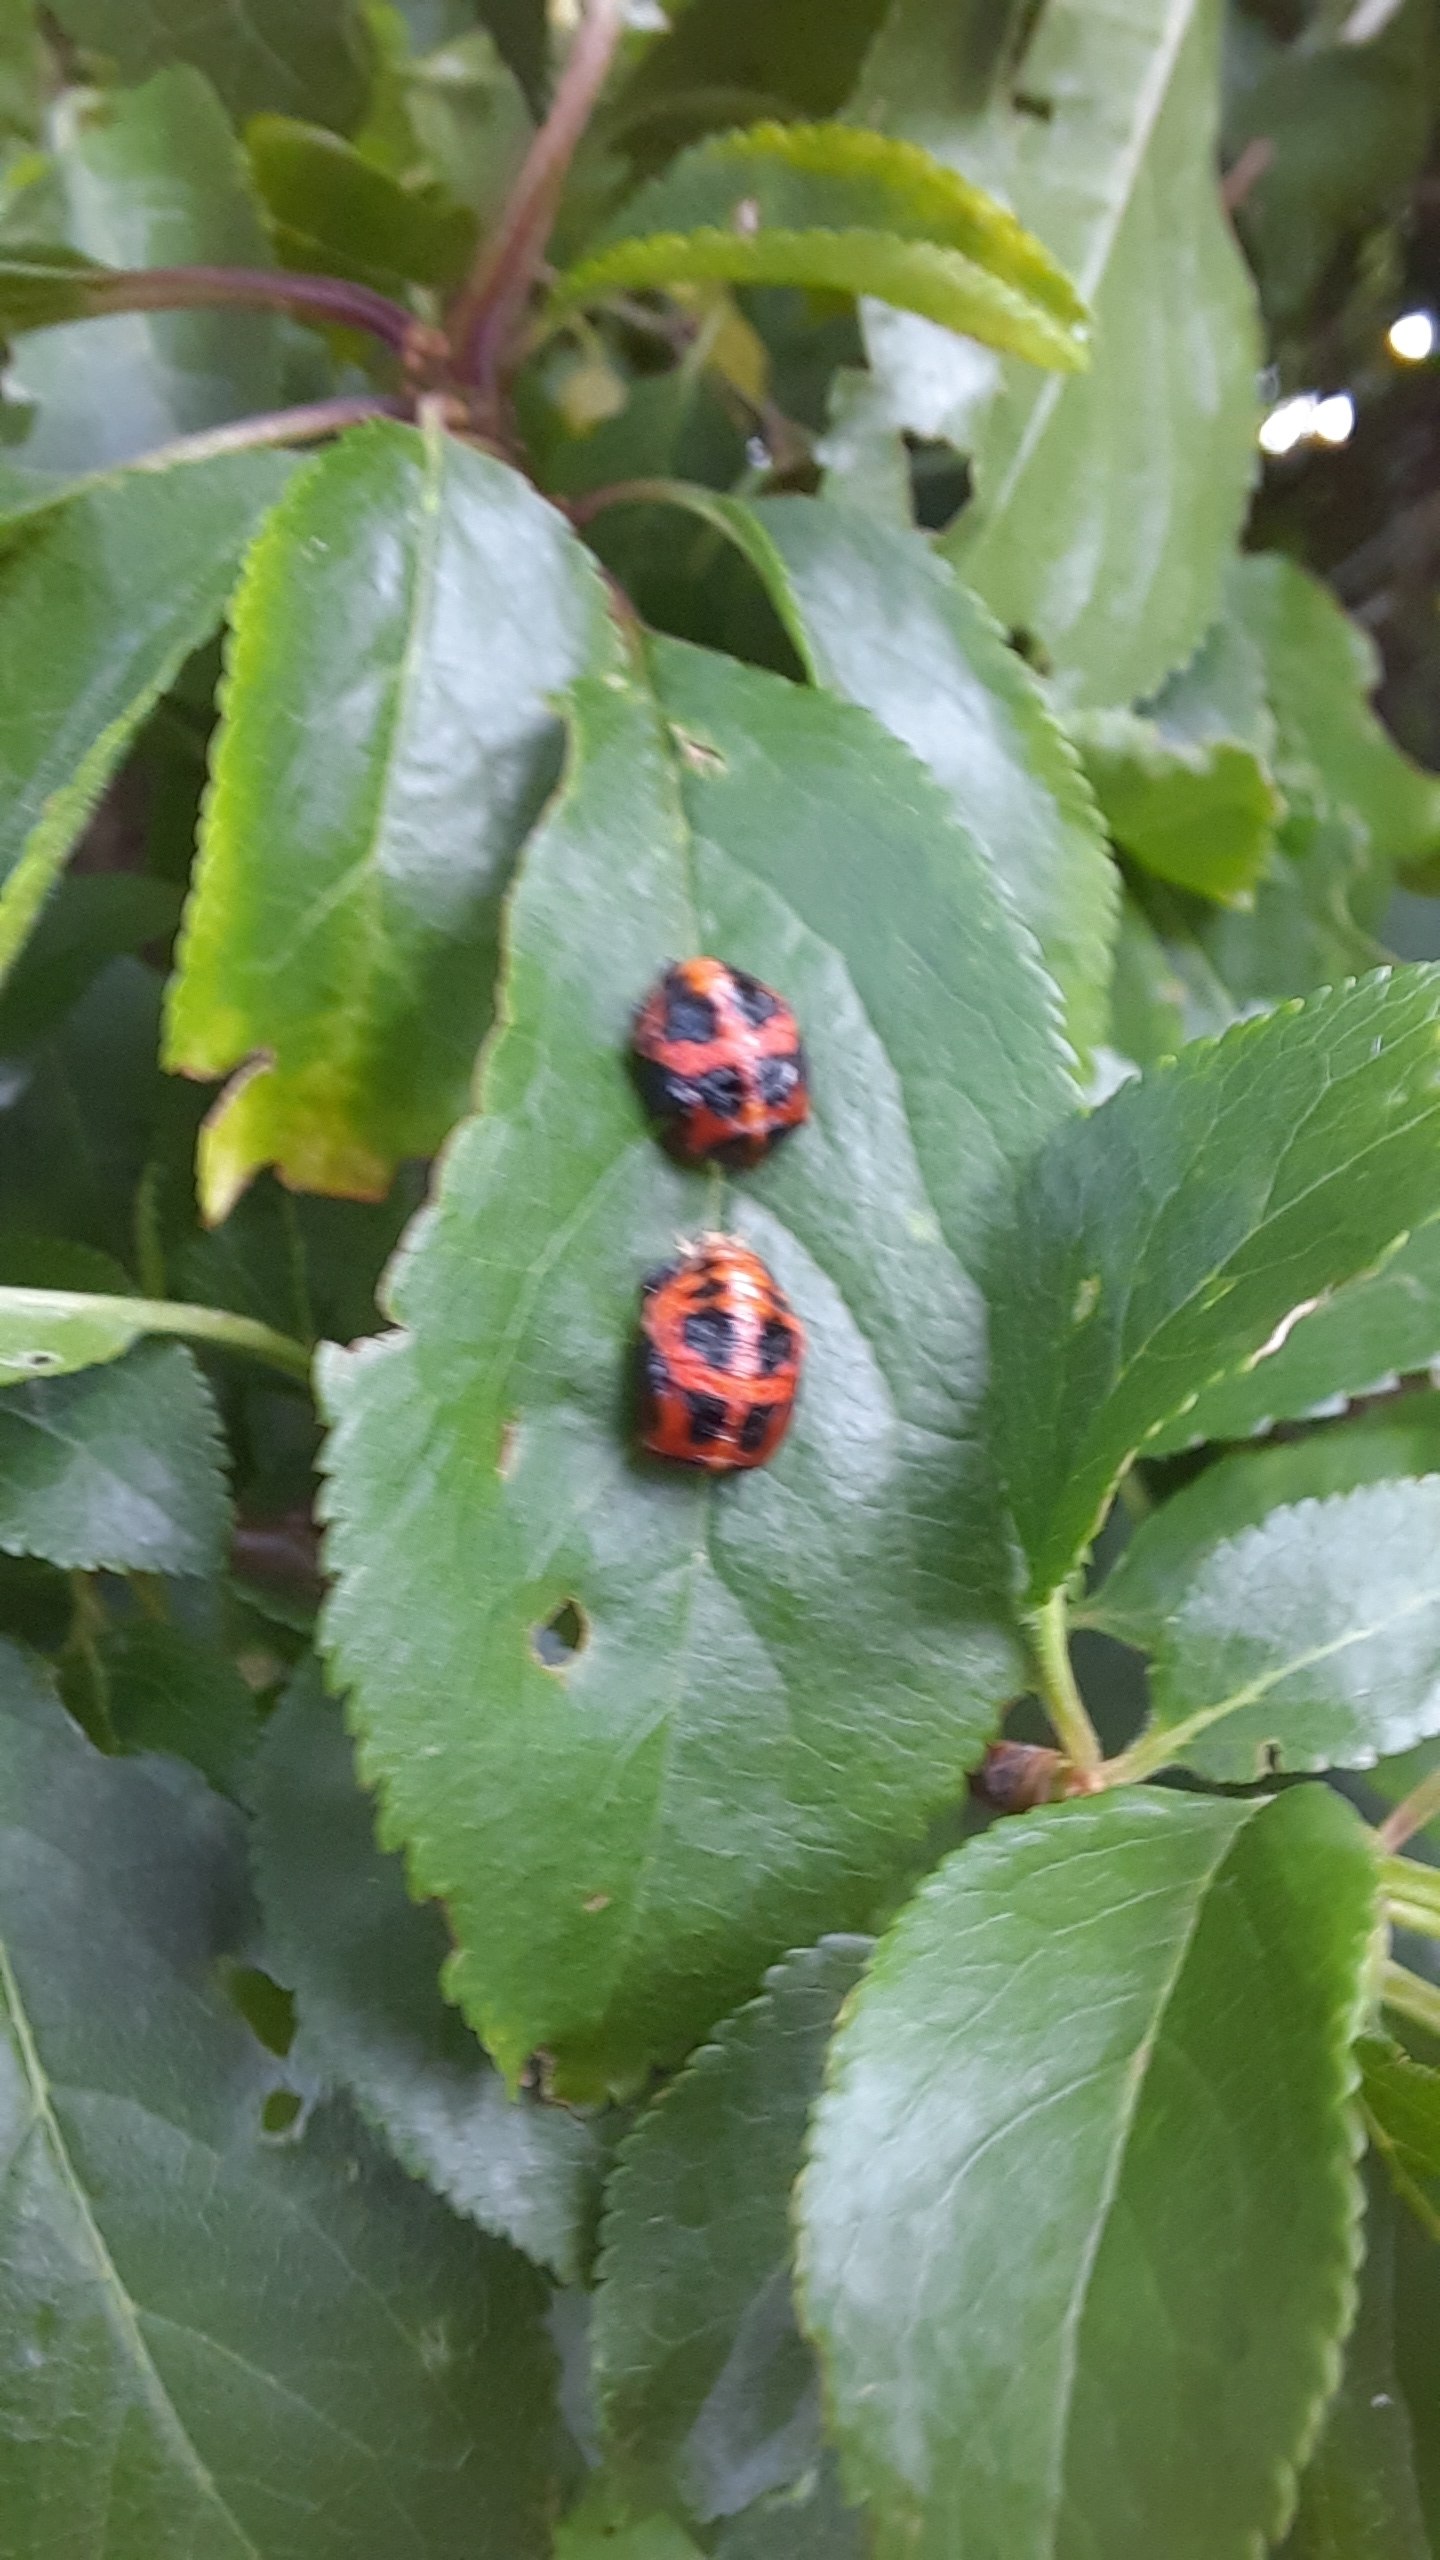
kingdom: Animalia
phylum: Arthropoda
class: Insecta
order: Coleoptera
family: Coccinellidae
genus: Harmonia
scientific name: Harmonia axyridis
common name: Harlekinmariehøne
